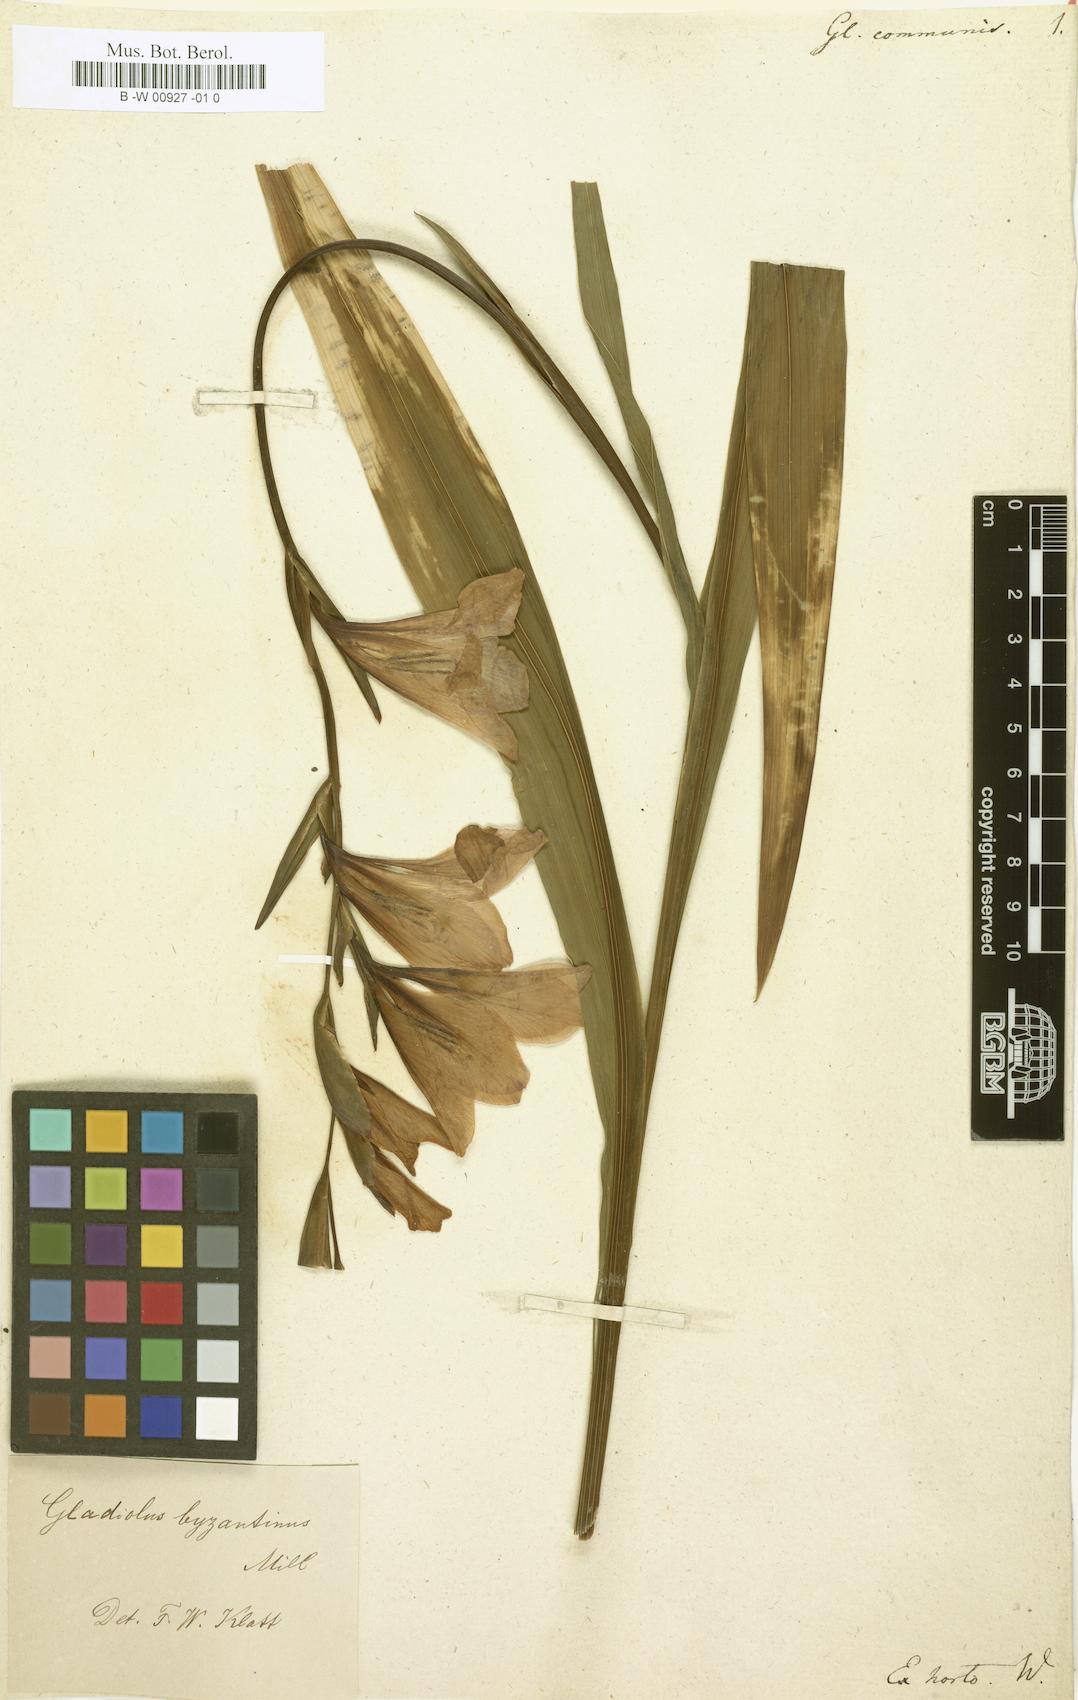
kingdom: Plantae
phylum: Tracheophyta
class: Liliopsida
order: Asparagales
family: Iridaceae
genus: Gladiolus
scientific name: Gladiolus communis
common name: Eastern gladiolus
